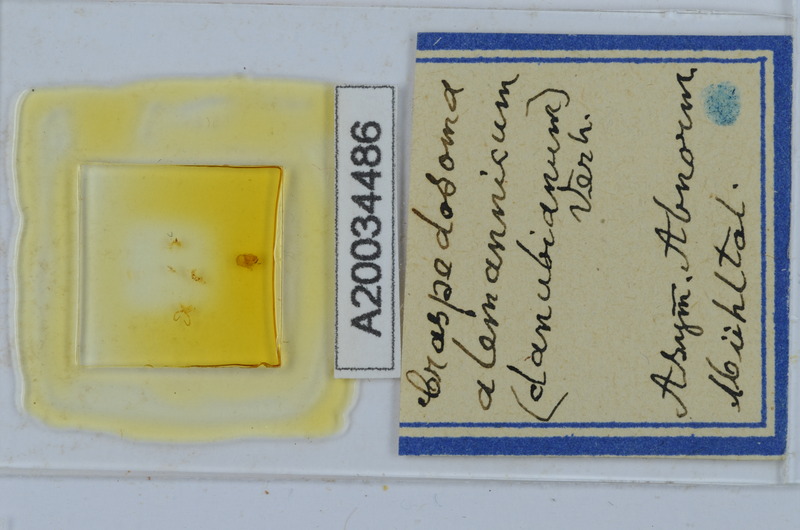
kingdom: Animalia
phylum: Arthropoda
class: Diplopoda
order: Chordeumatida
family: Craspedosomatidae
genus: Craspedosoma
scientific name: Craspedosoma alemannicum
